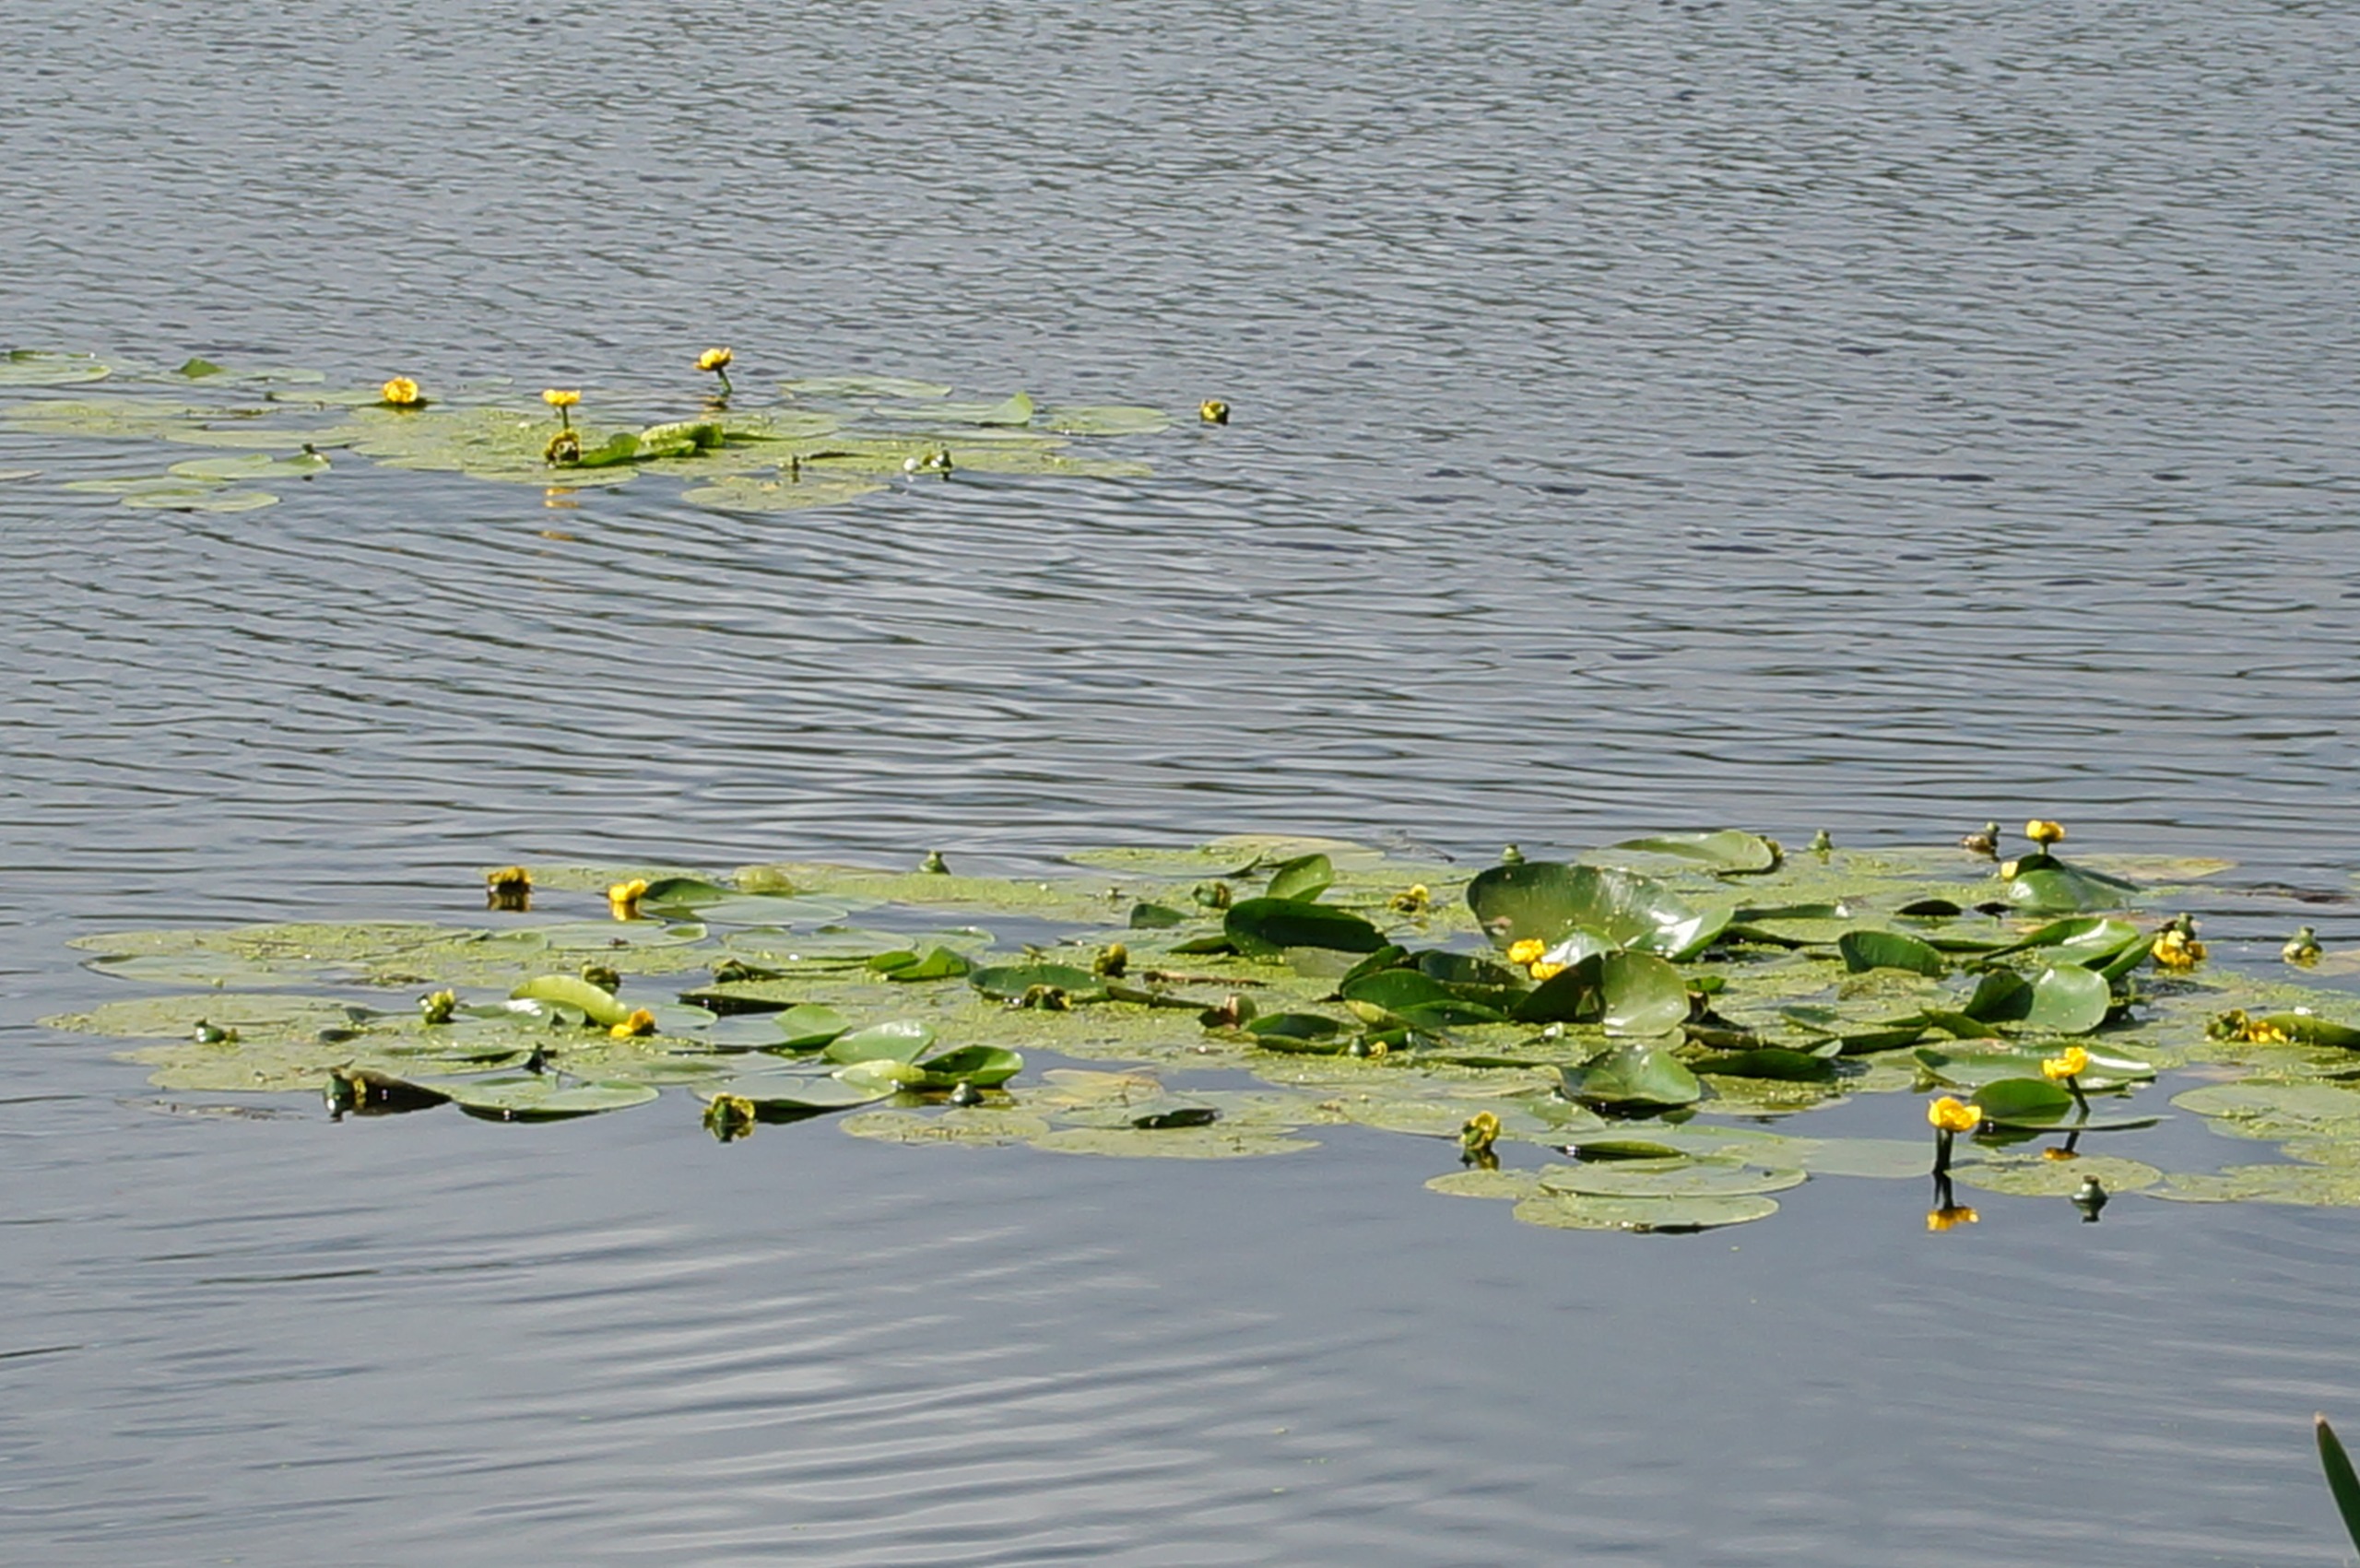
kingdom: Plantae
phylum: Tracheophyta
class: Magnoliopsida
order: Nymphaeales
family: Nymphaeaceae
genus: Nuphar
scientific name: Nuphar lutea
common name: Gul åkande
